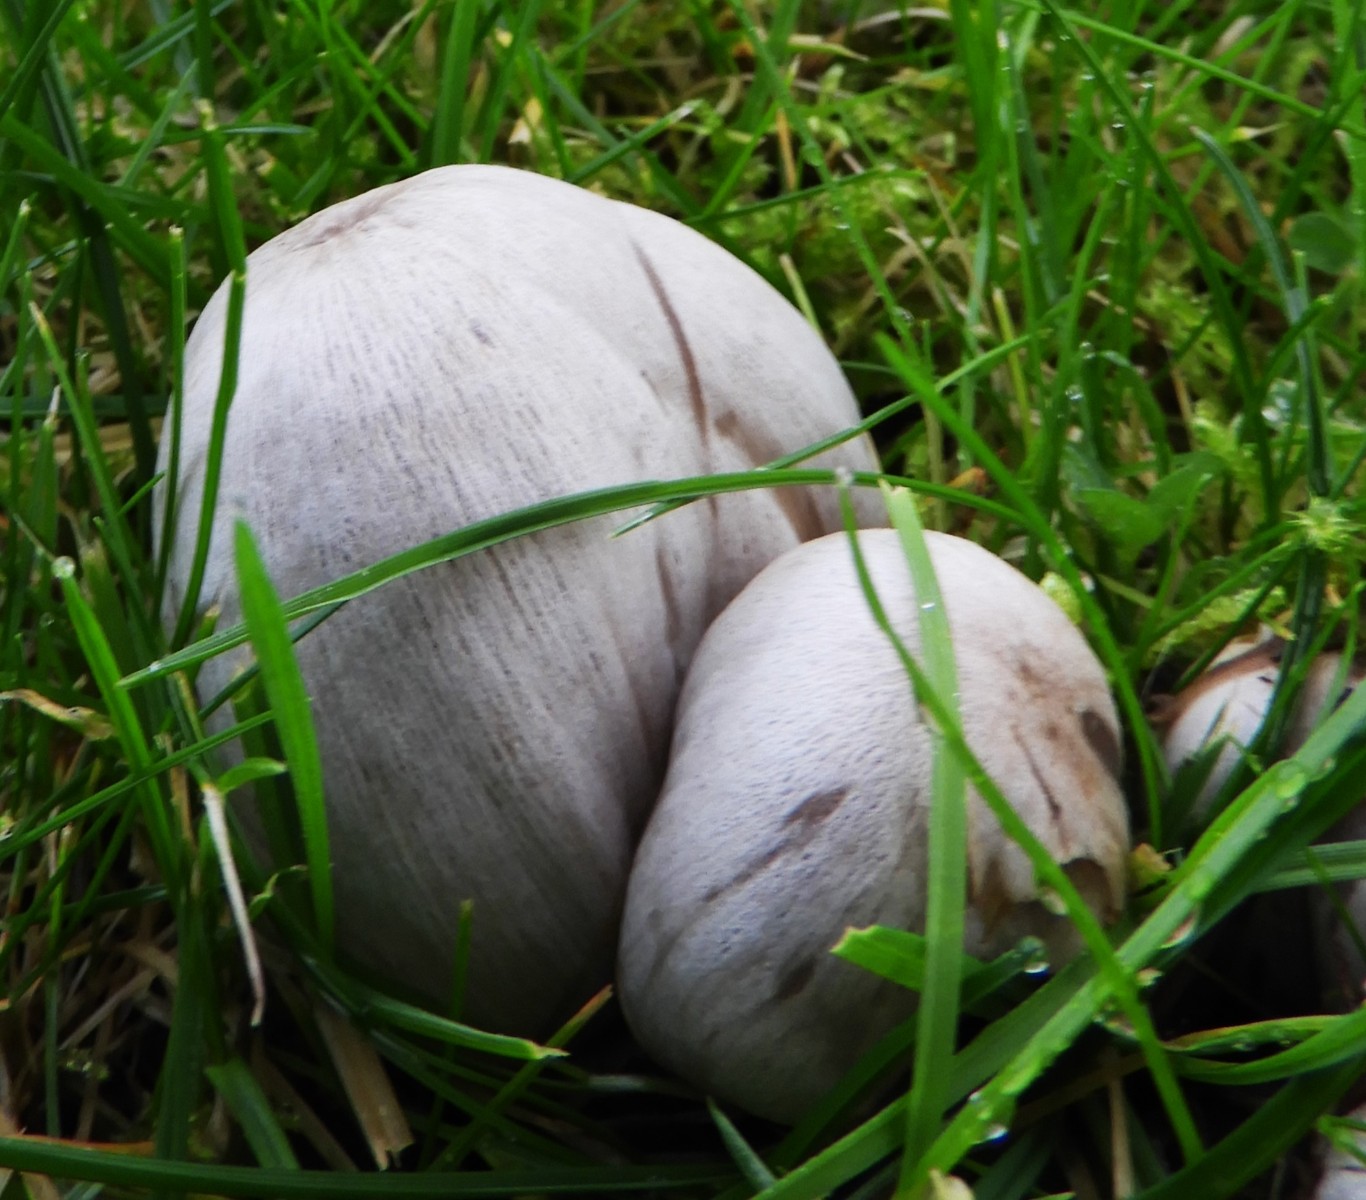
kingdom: Fungi
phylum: Basidiomycota
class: Agaricomycetes
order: Agaricales
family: Psathyrellaceae
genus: Coprinopsis
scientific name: Coprinopsis atramentaria
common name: almindelig blækhat
